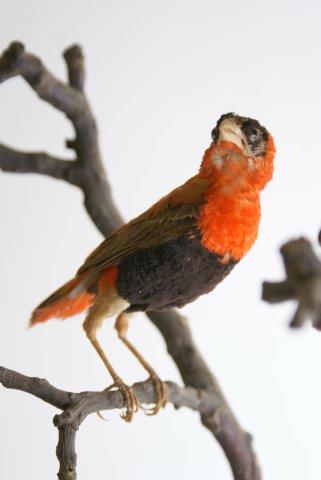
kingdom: Animalia
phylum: Chordata
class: Aves
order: Passeriformes
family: Ploceidae
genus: Euplectes
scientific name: Euplectes orix
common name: Southern red bishop
